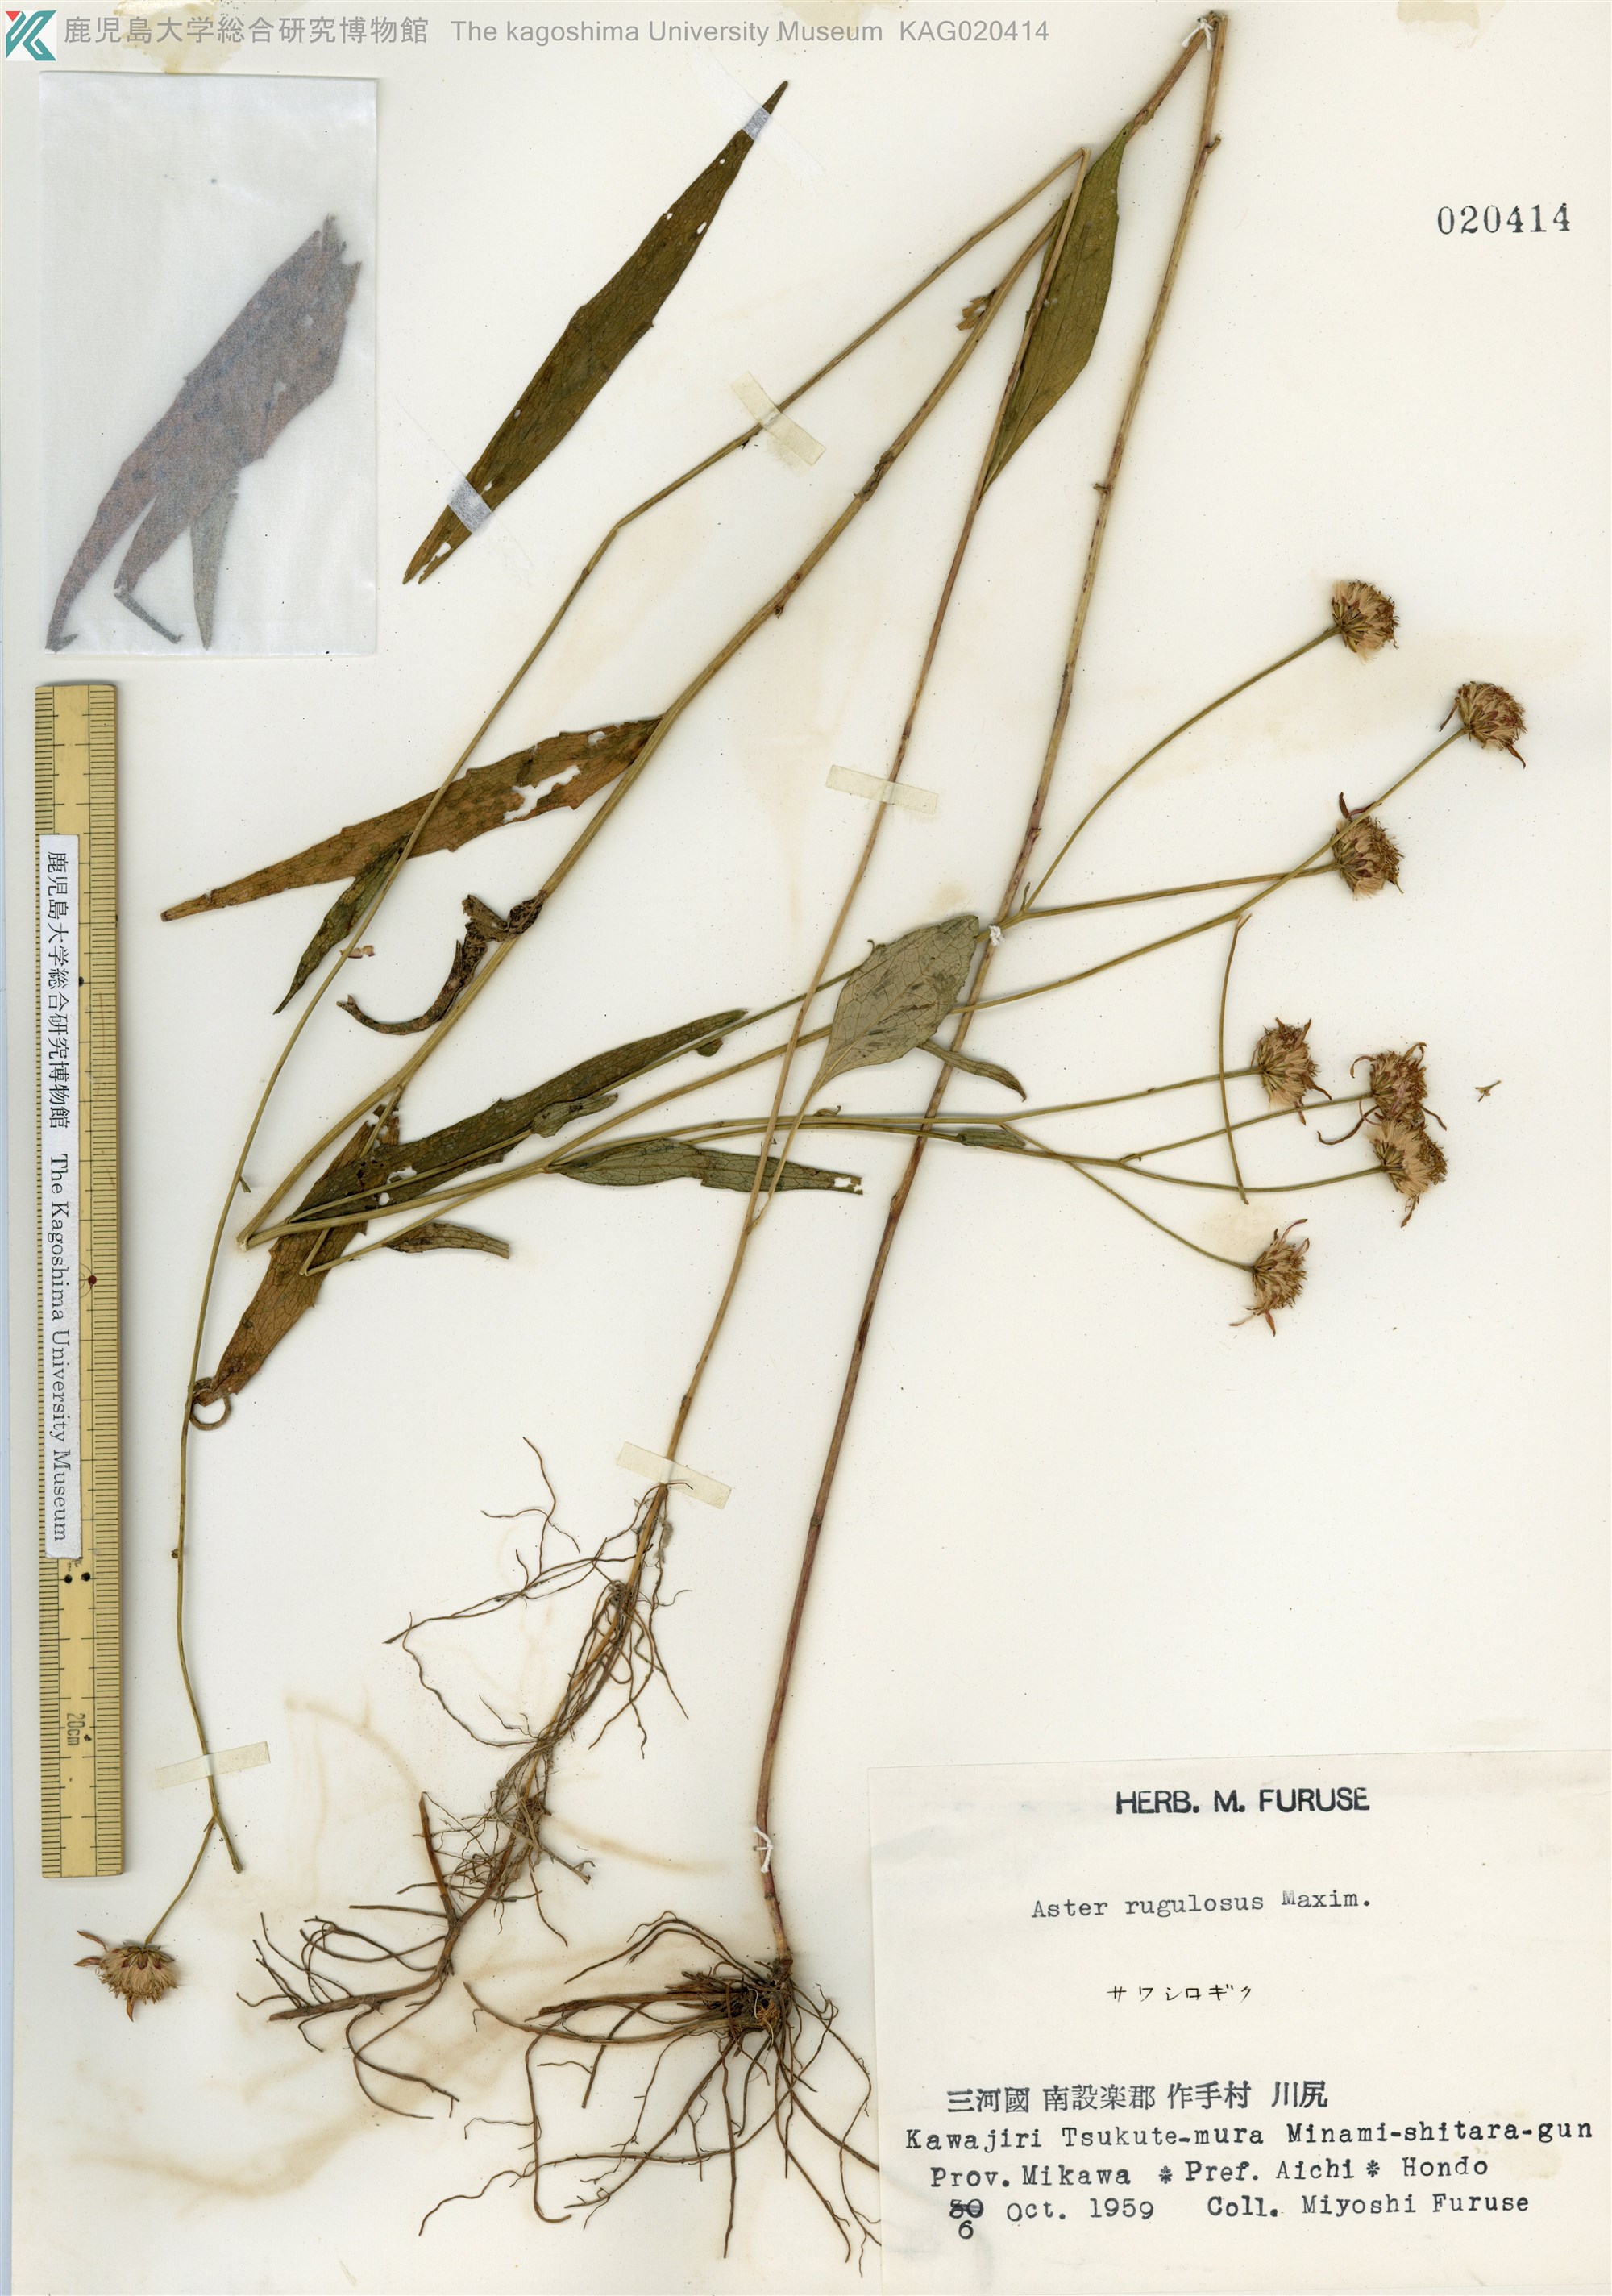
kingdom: Plantae
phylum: Tracheophyta
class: Magnoliopsida
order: Asterales
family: Asteraceae
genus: Cardiagyris
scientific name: Cardiagyris rugulosa
